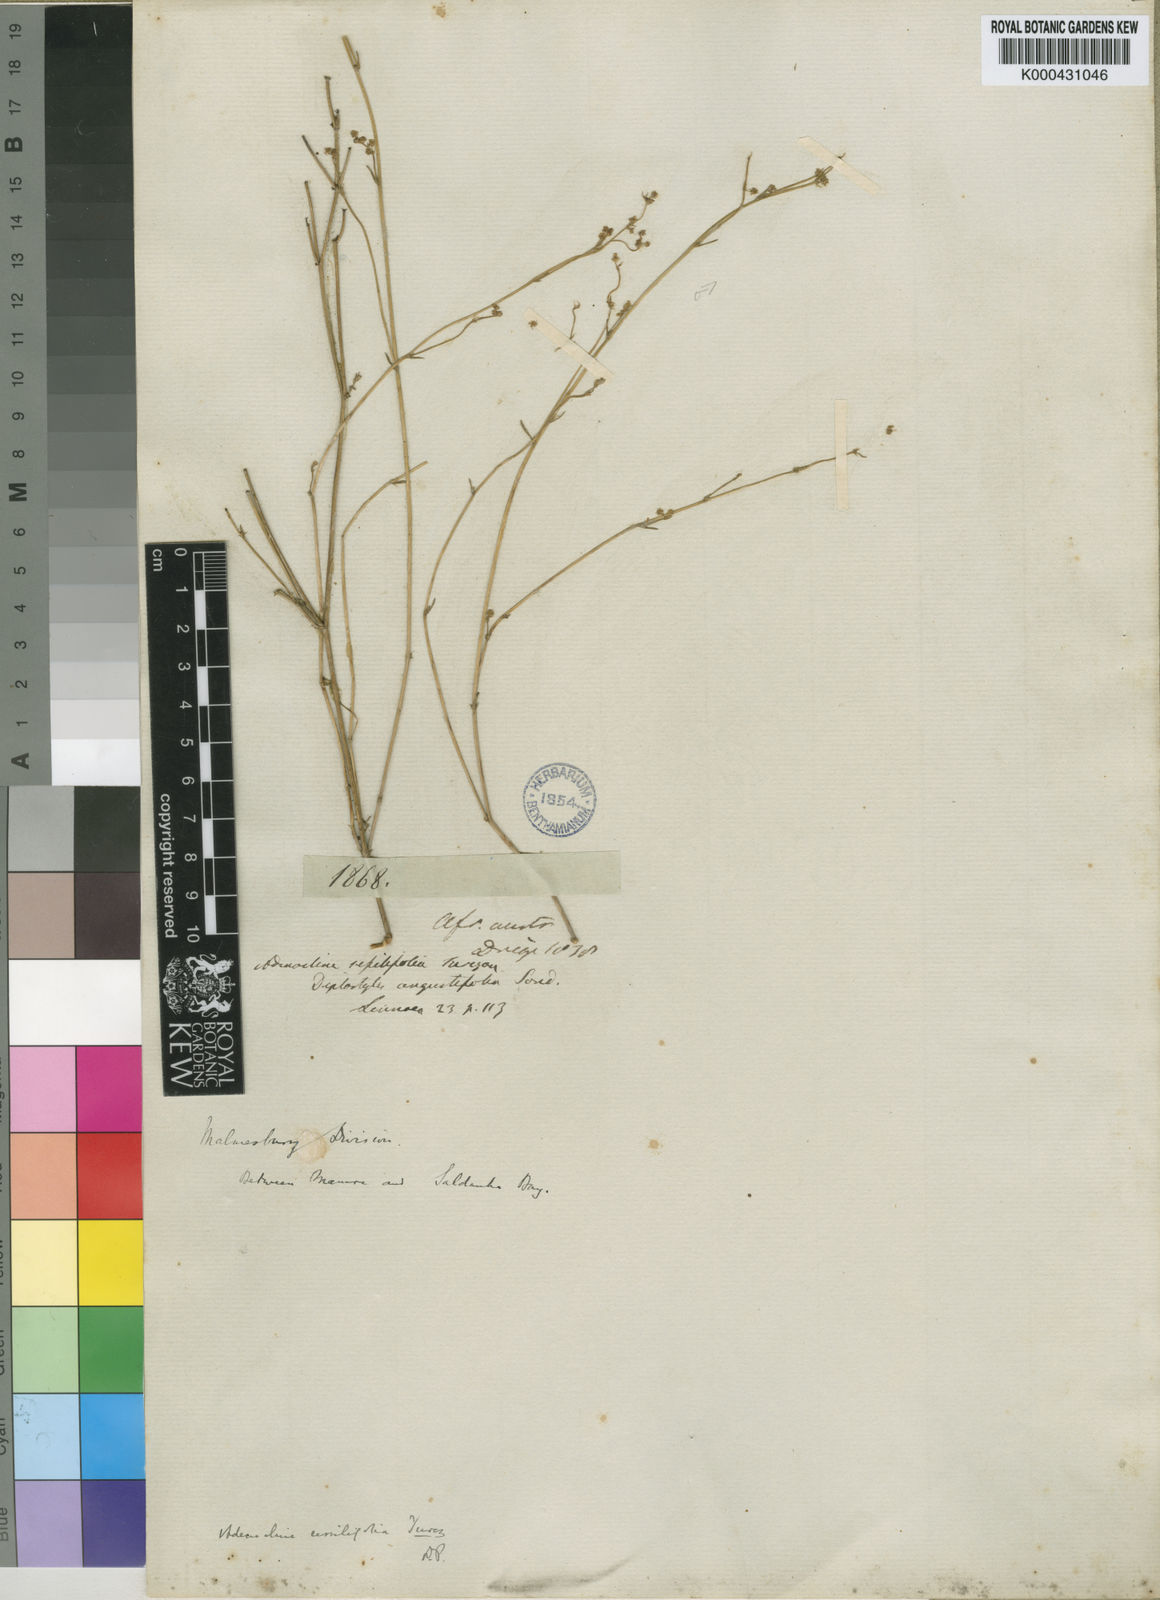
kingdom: Plantae
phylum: Tracheophyta
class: Magnoliopsida
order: Malpighiales
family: Euphorbiaceae
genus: Adenocline
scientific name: Adenocline pauciflora
